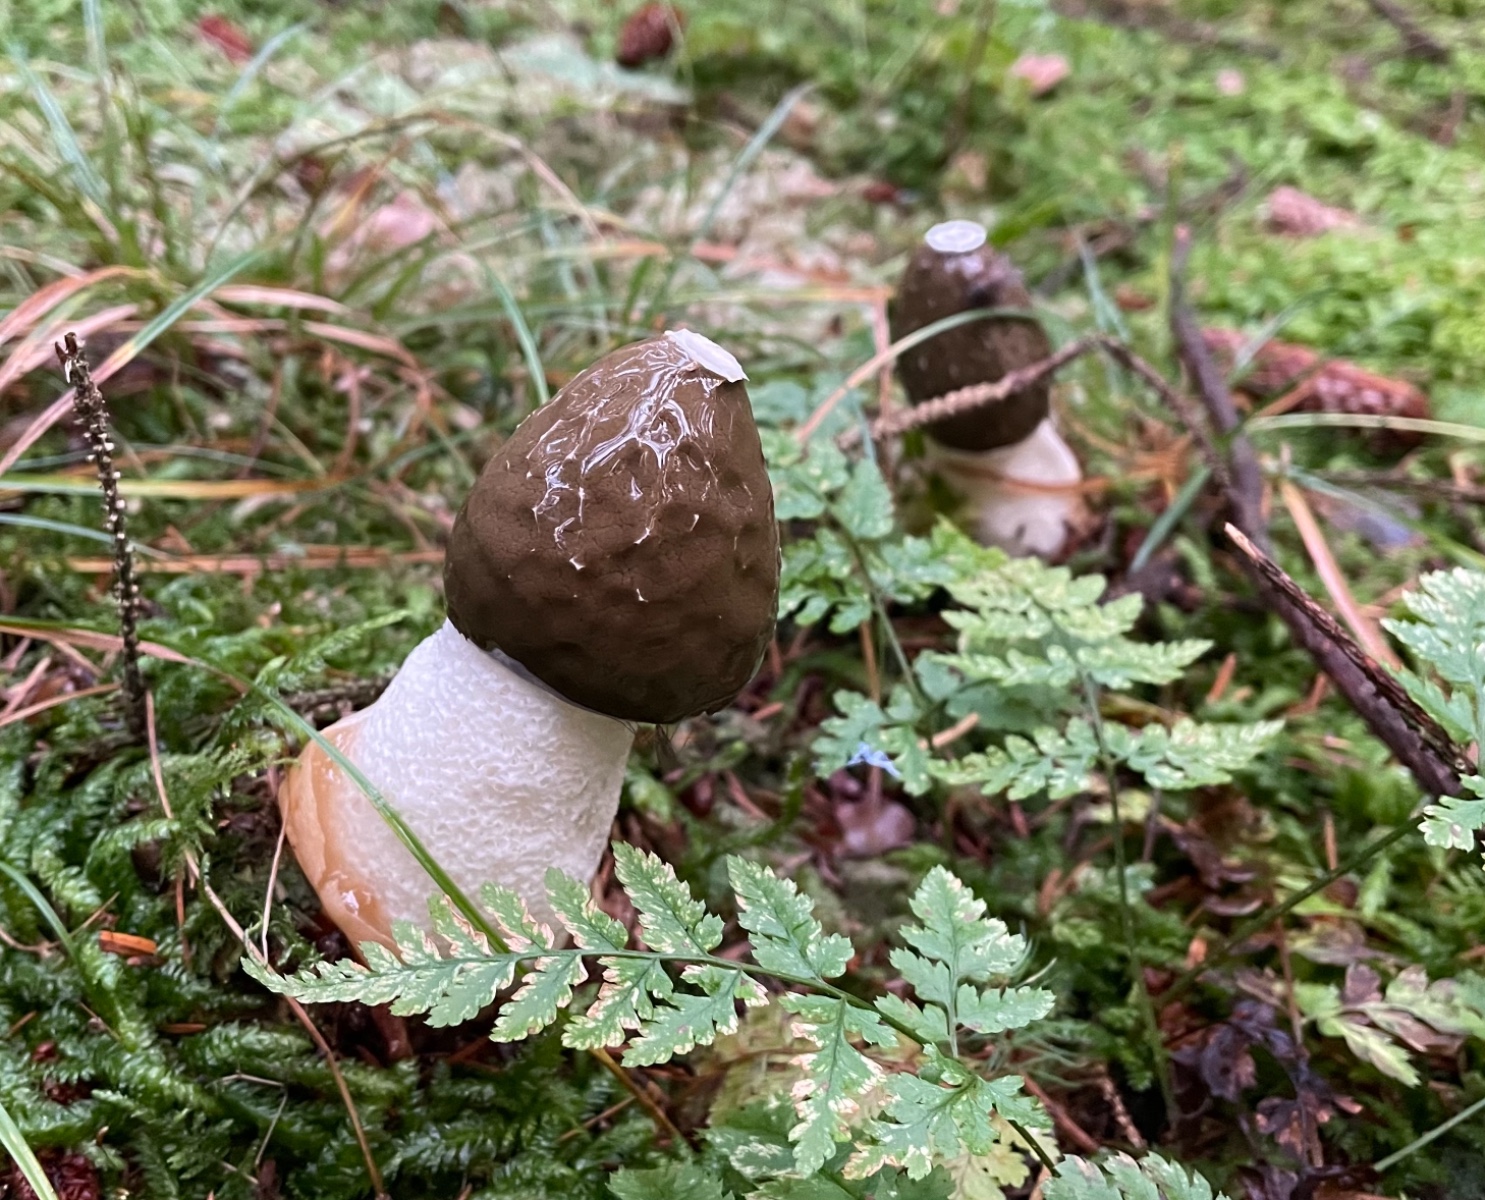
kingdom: Fungi
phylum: Basidiomycota
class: Agaricomycetes
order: Phallales
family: Phallaceae
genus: Phallus
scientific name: Phallus impudicus
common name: almindelig stinksvamp
